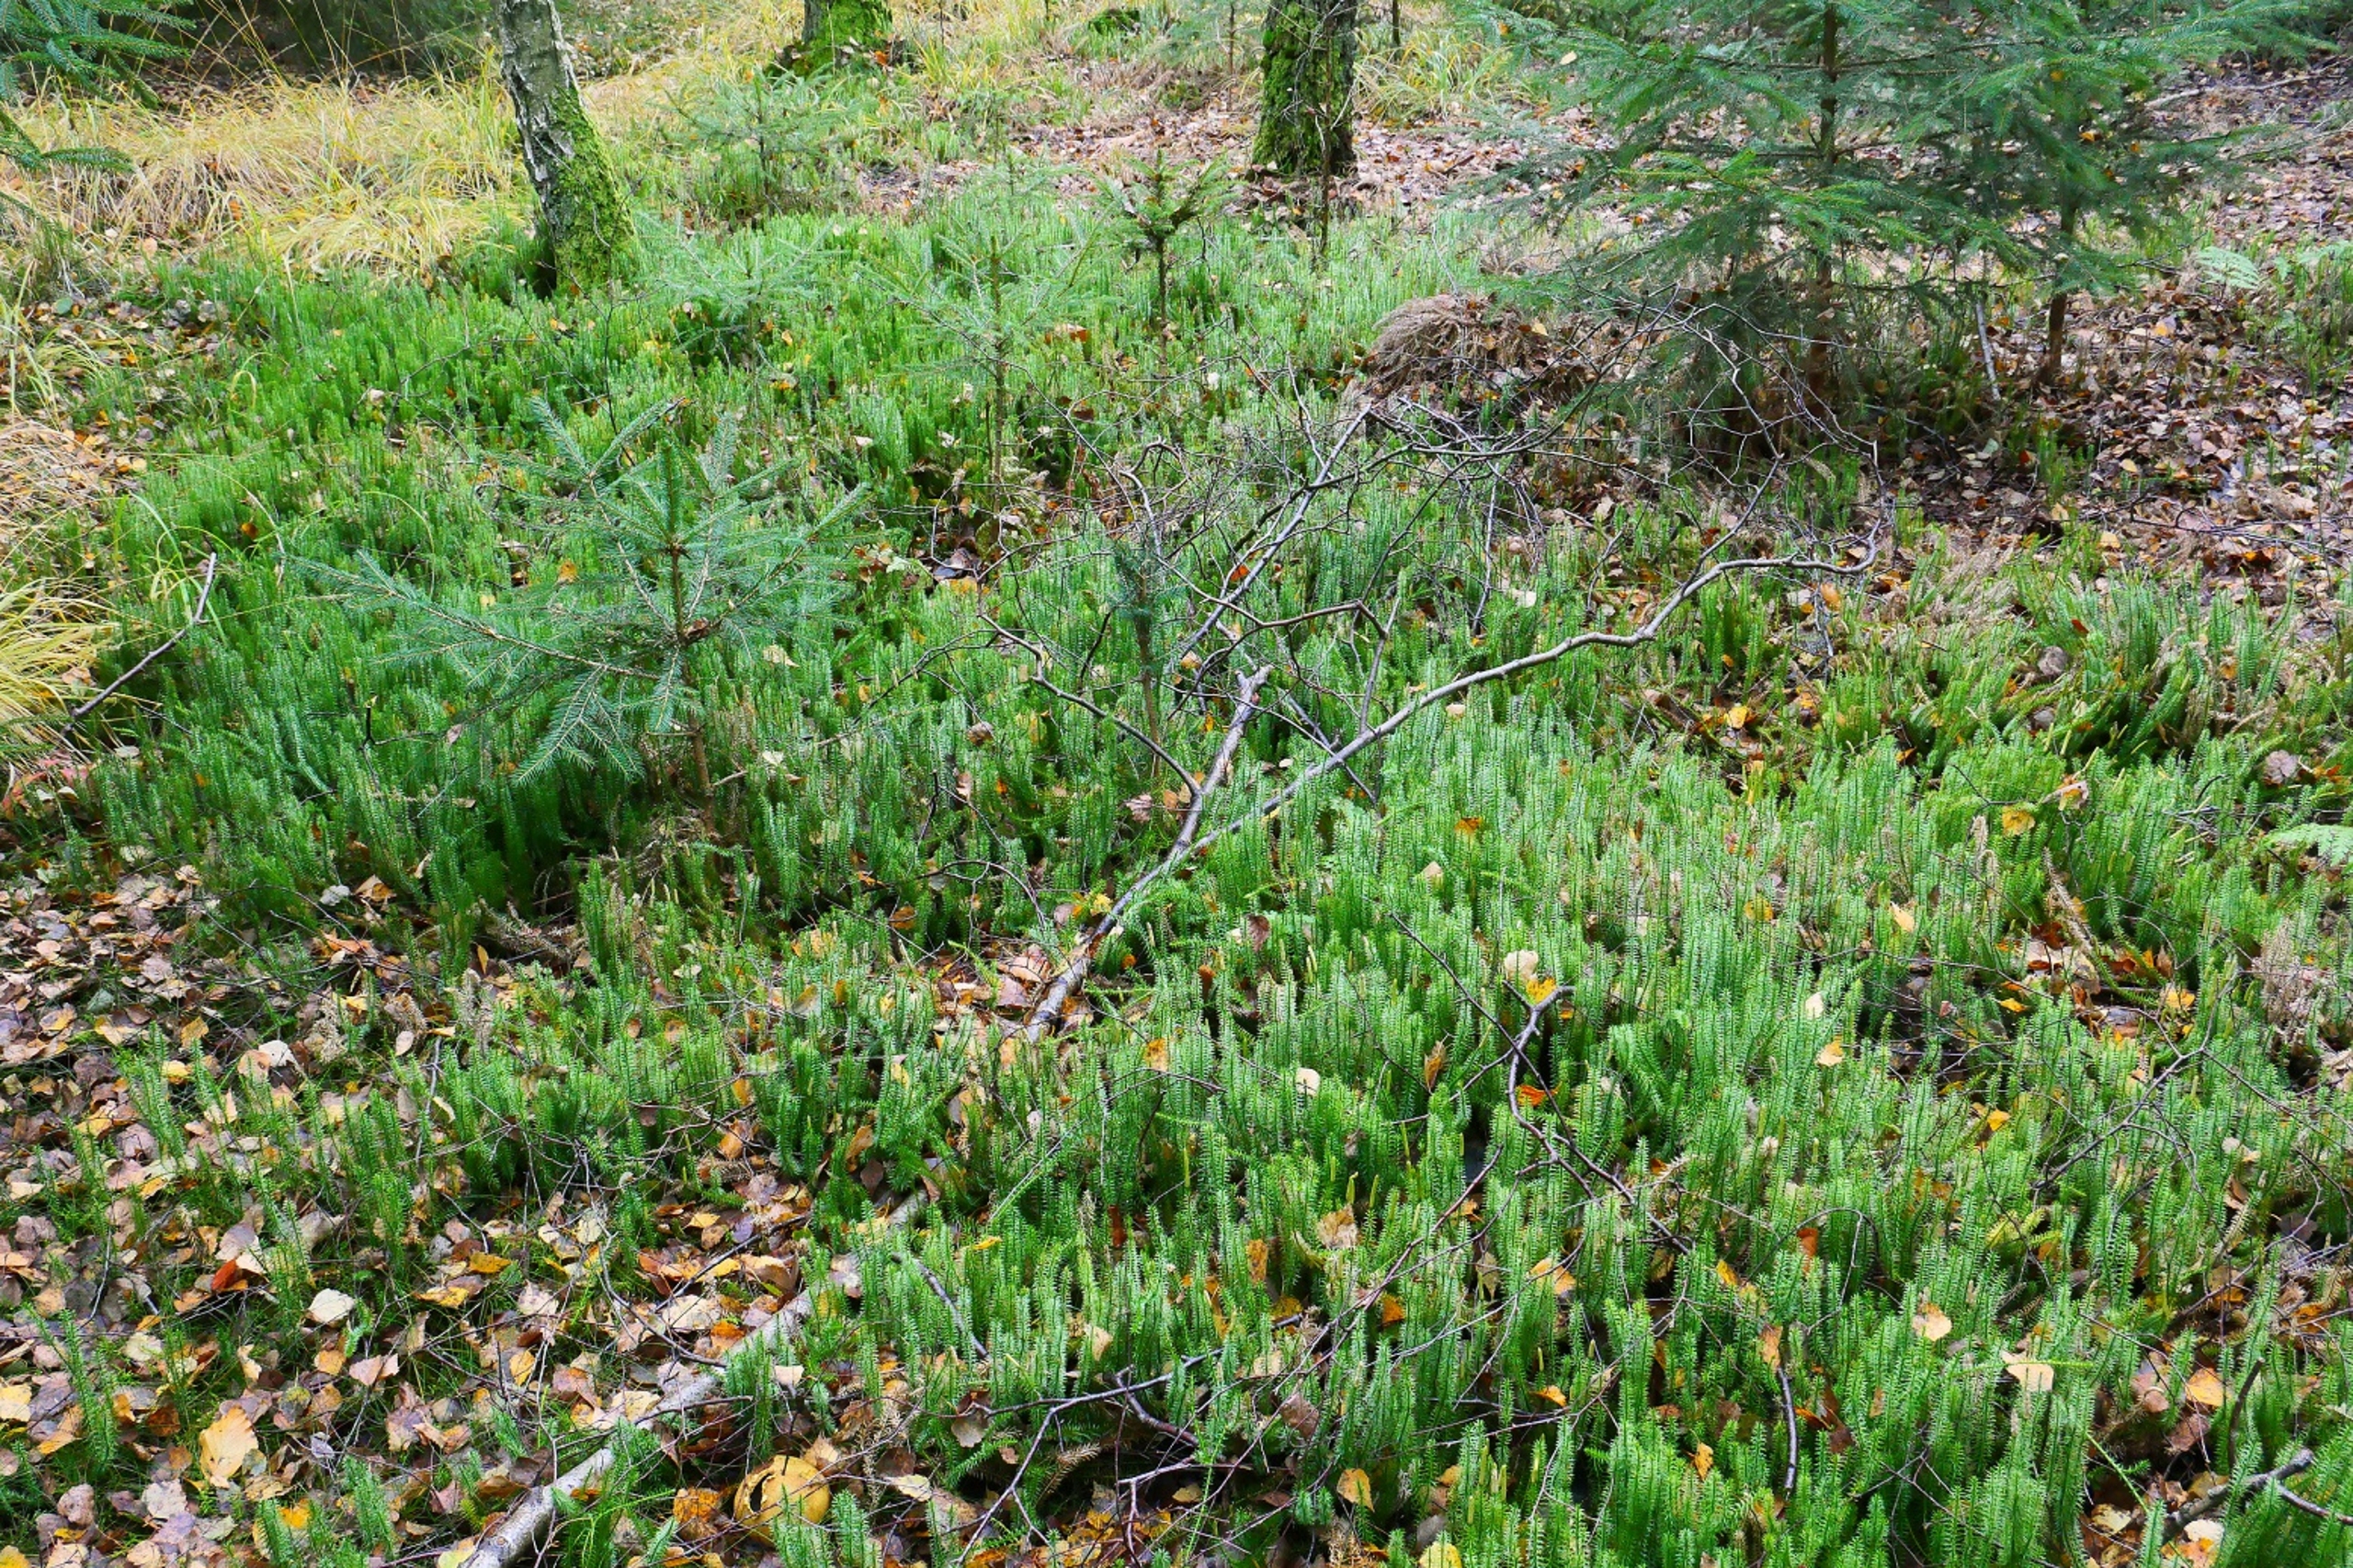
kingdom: Plantae
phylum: Tracheophyta
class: Lycopodiopsida
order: Lycopodiales
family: Lycopodiaceae
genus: Spinulum
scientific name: Spinulum annotinum
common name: Femradet ulvefod
